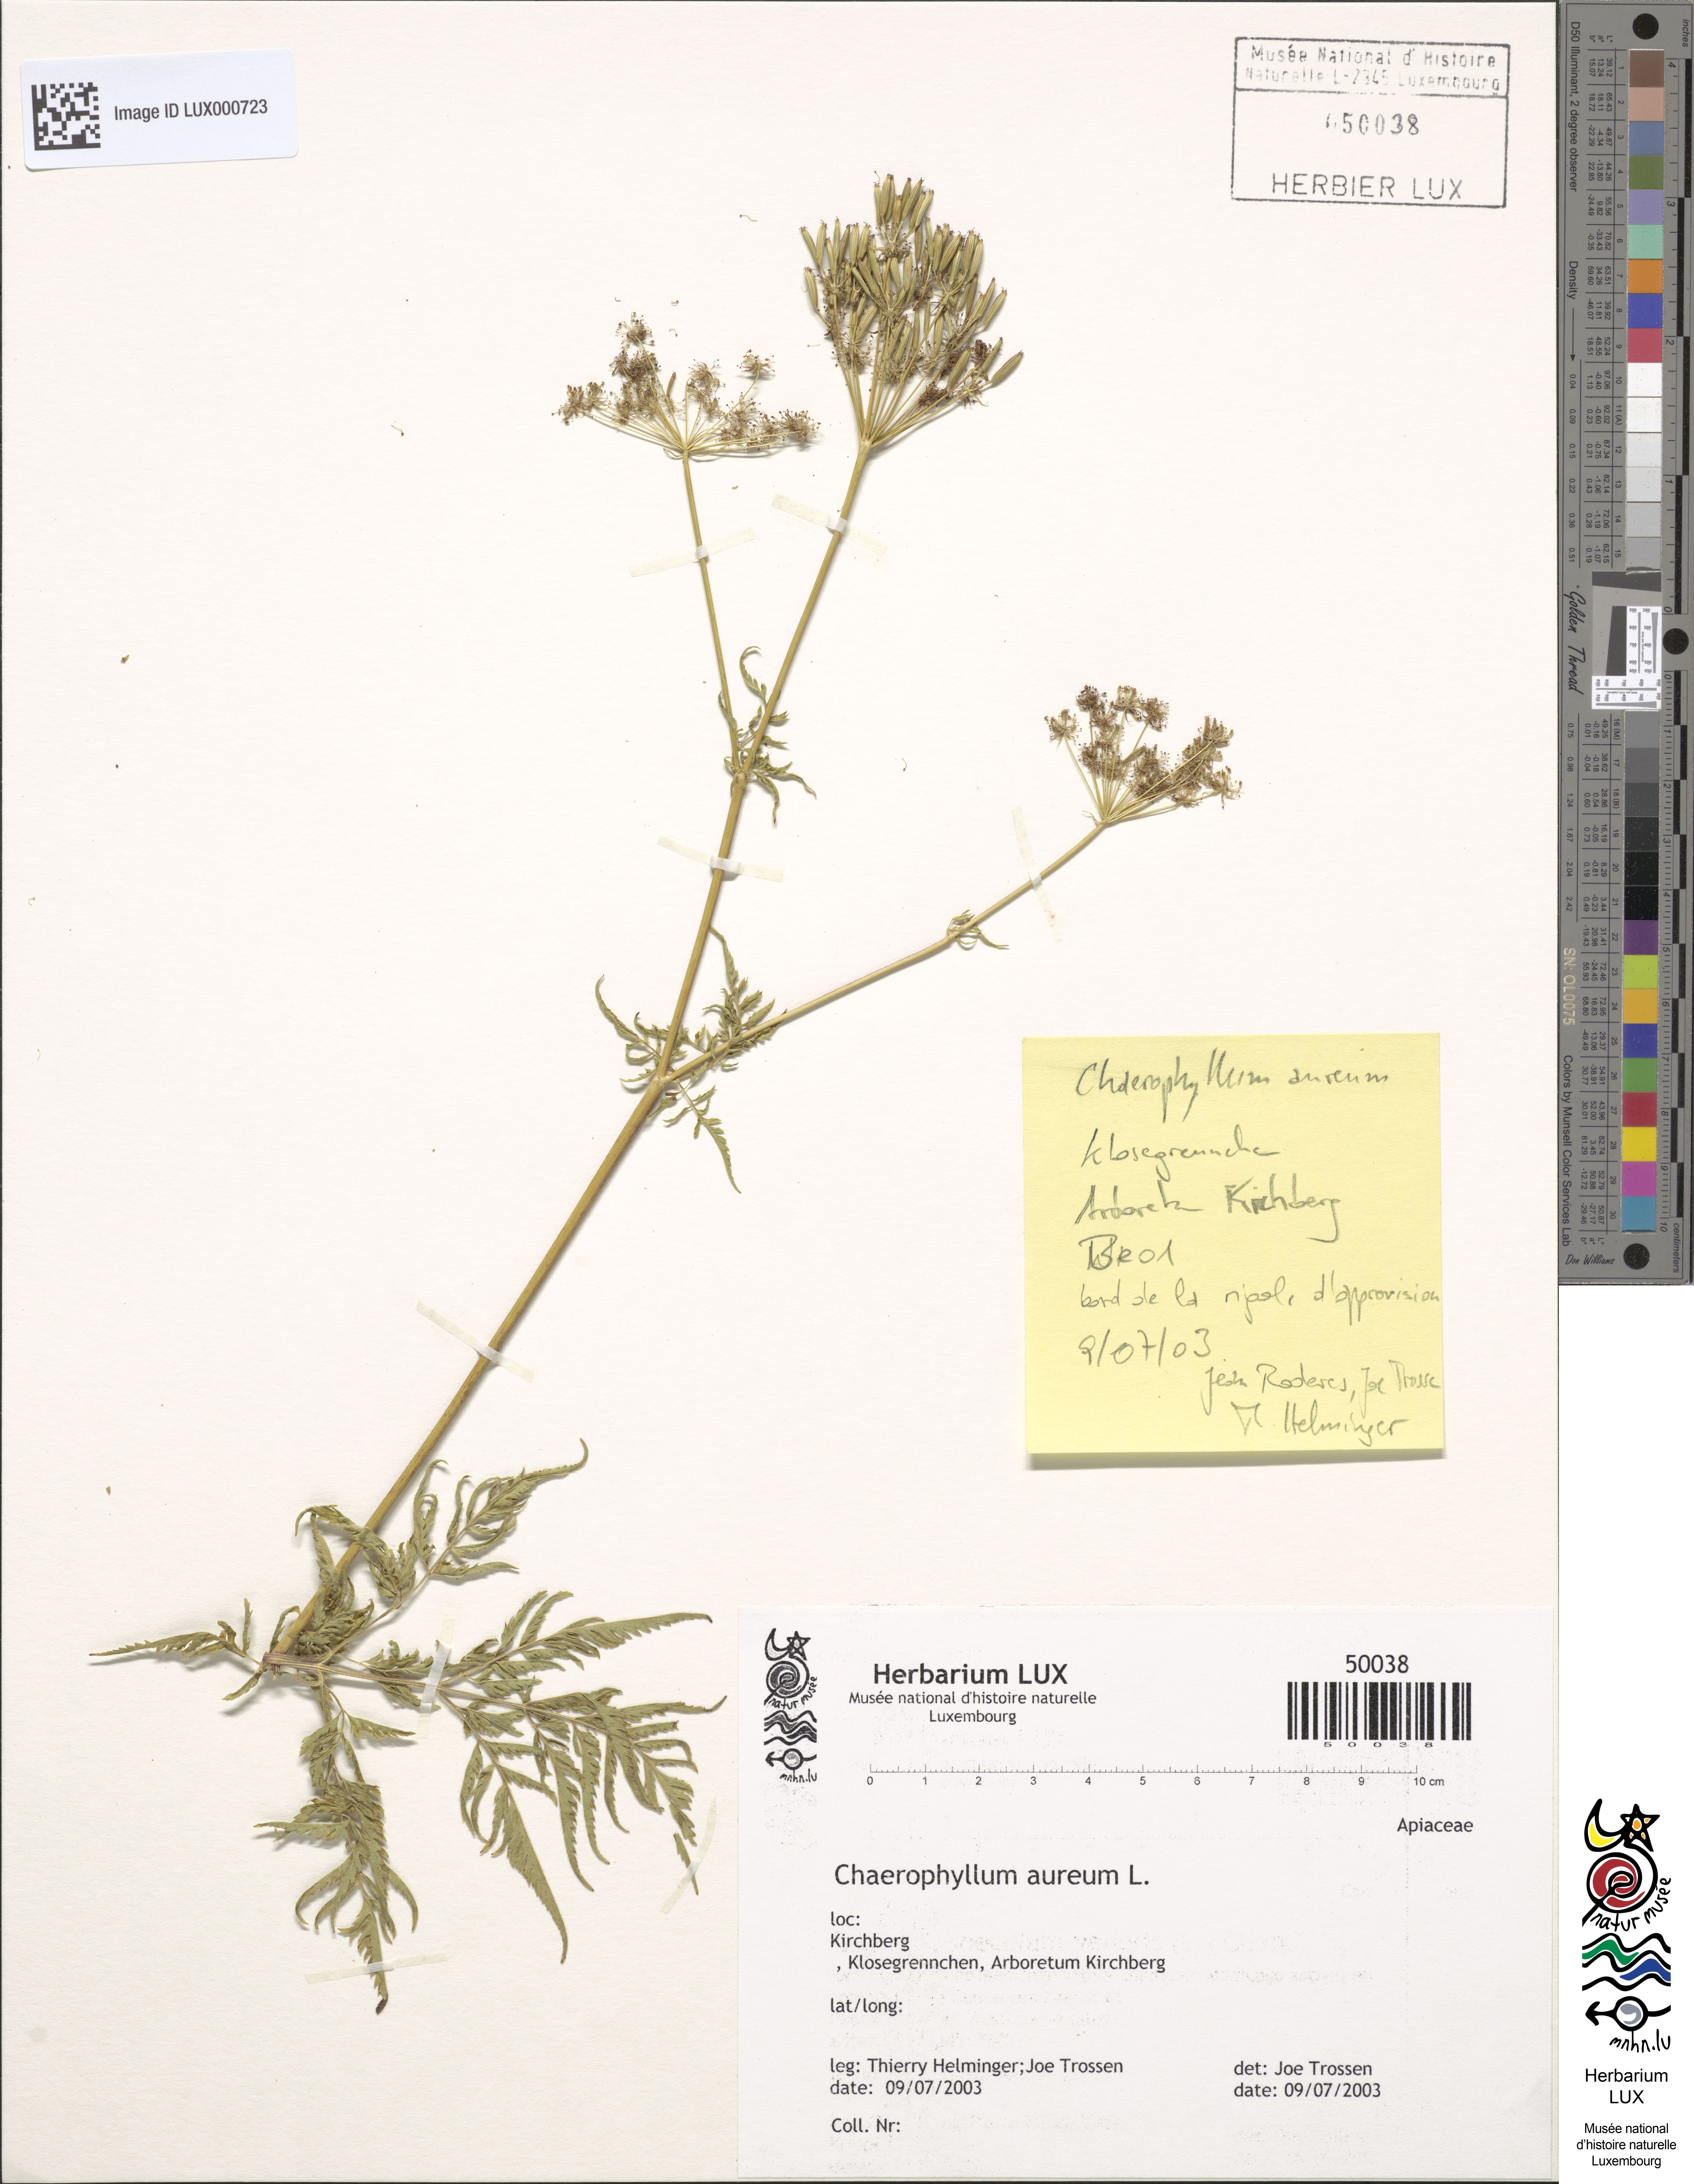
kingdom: Plantae
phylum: Tracheophyta
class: Magnoliopsida
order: Apiales
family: Apiaceae
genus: Chaerophyllum
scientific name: Chaerophyllum aureum
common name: Golden chervil
